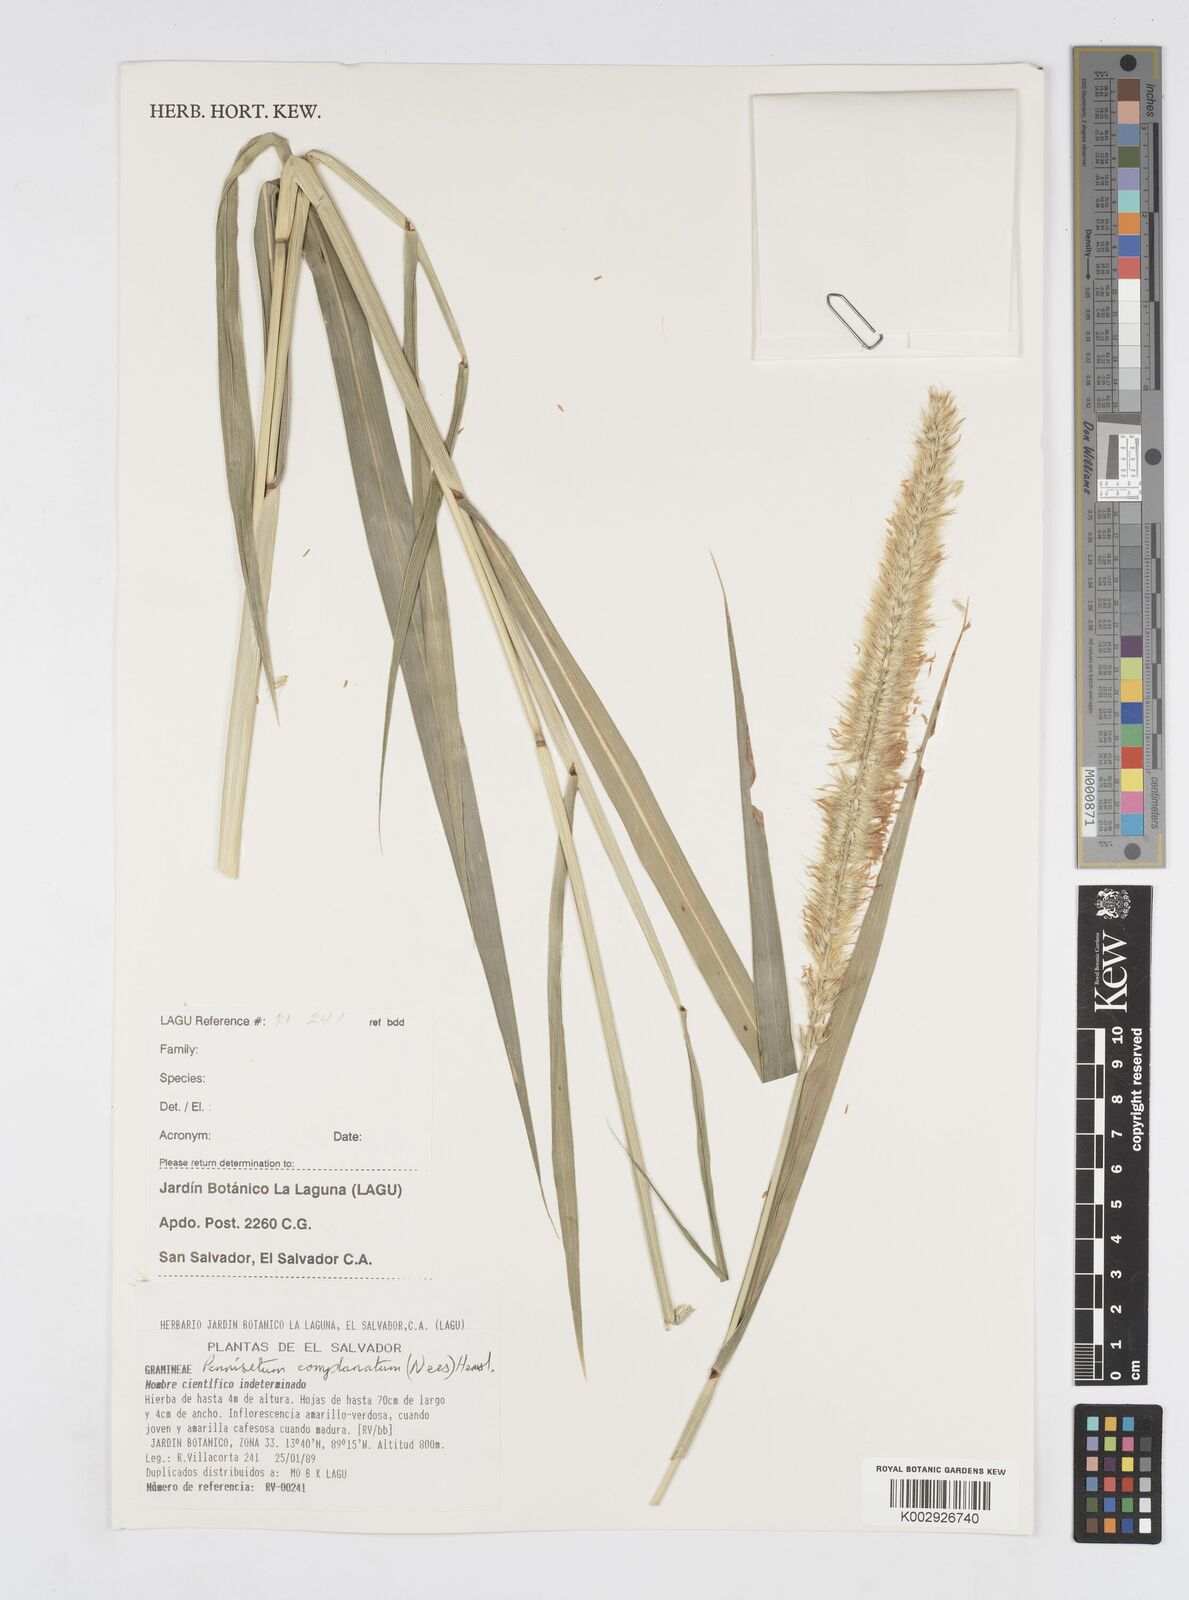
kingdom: Plantae
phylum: Tracheophyta
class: Liliopsida
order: Poales
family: Poaceae
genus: Cenchrus
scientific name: Cenchrus complanatus
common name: Nicaraguan fountaingrass
